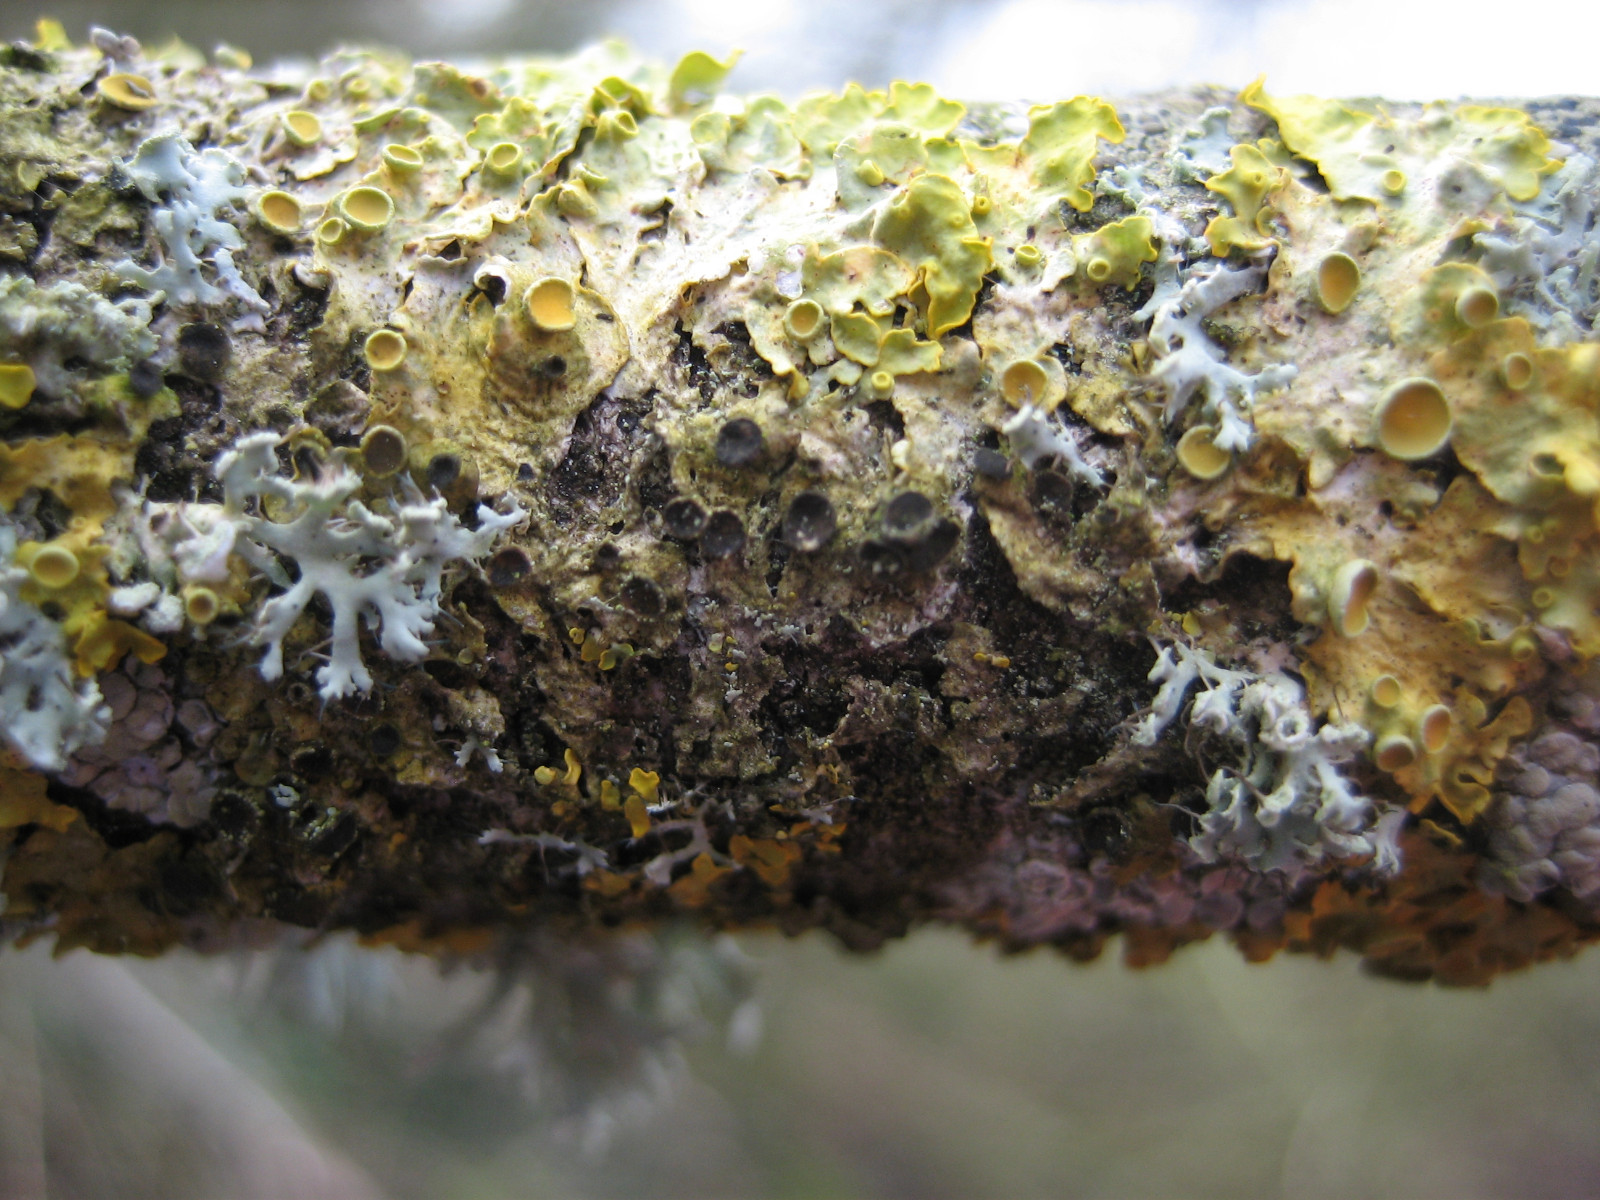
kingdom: Fungi
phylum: Ascomycota
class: Dothideomycetes
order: Mycosphaerellales
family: Teratosphaeriaceae
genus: Xanthoriicola
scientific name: Xanthoriicola physciae
